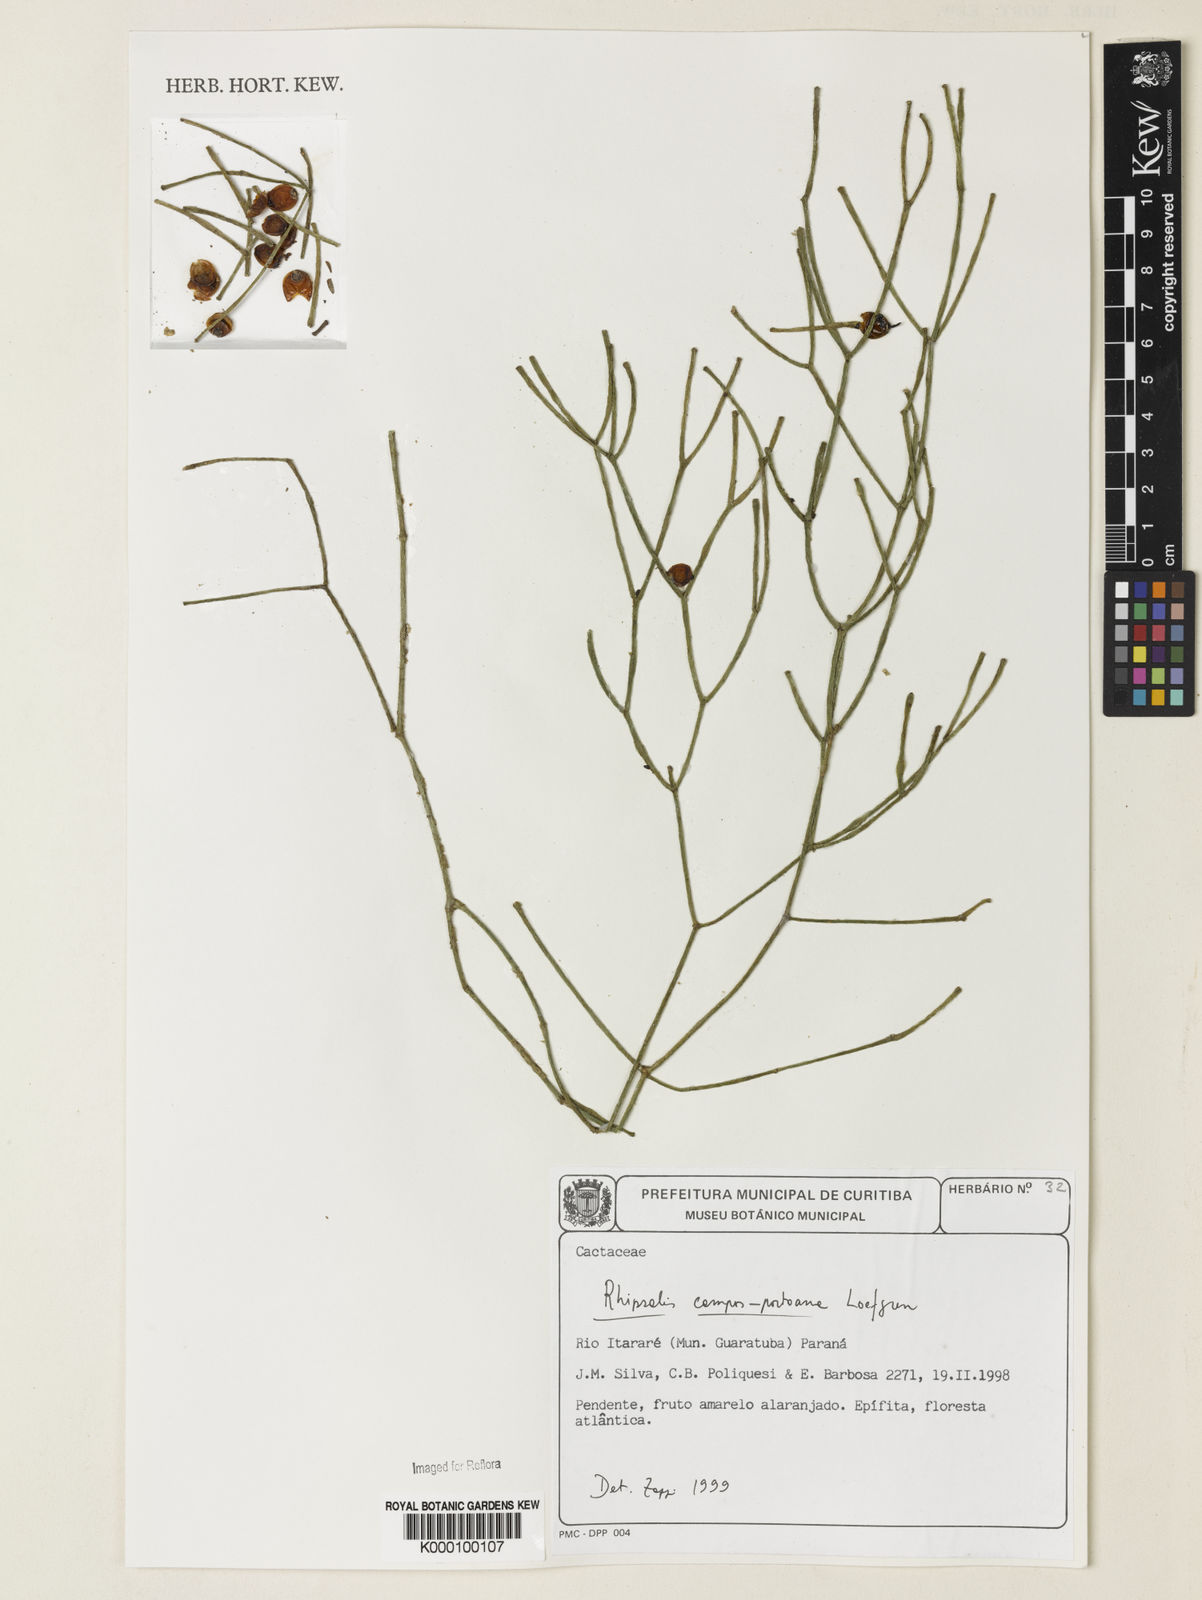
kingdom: Plantae
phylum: Tracheophyta
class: Magnoliopsida
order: Caryophyllales
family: Cactaceae
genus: Rhipsalis
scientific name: Rhipsalis campos-portoana
